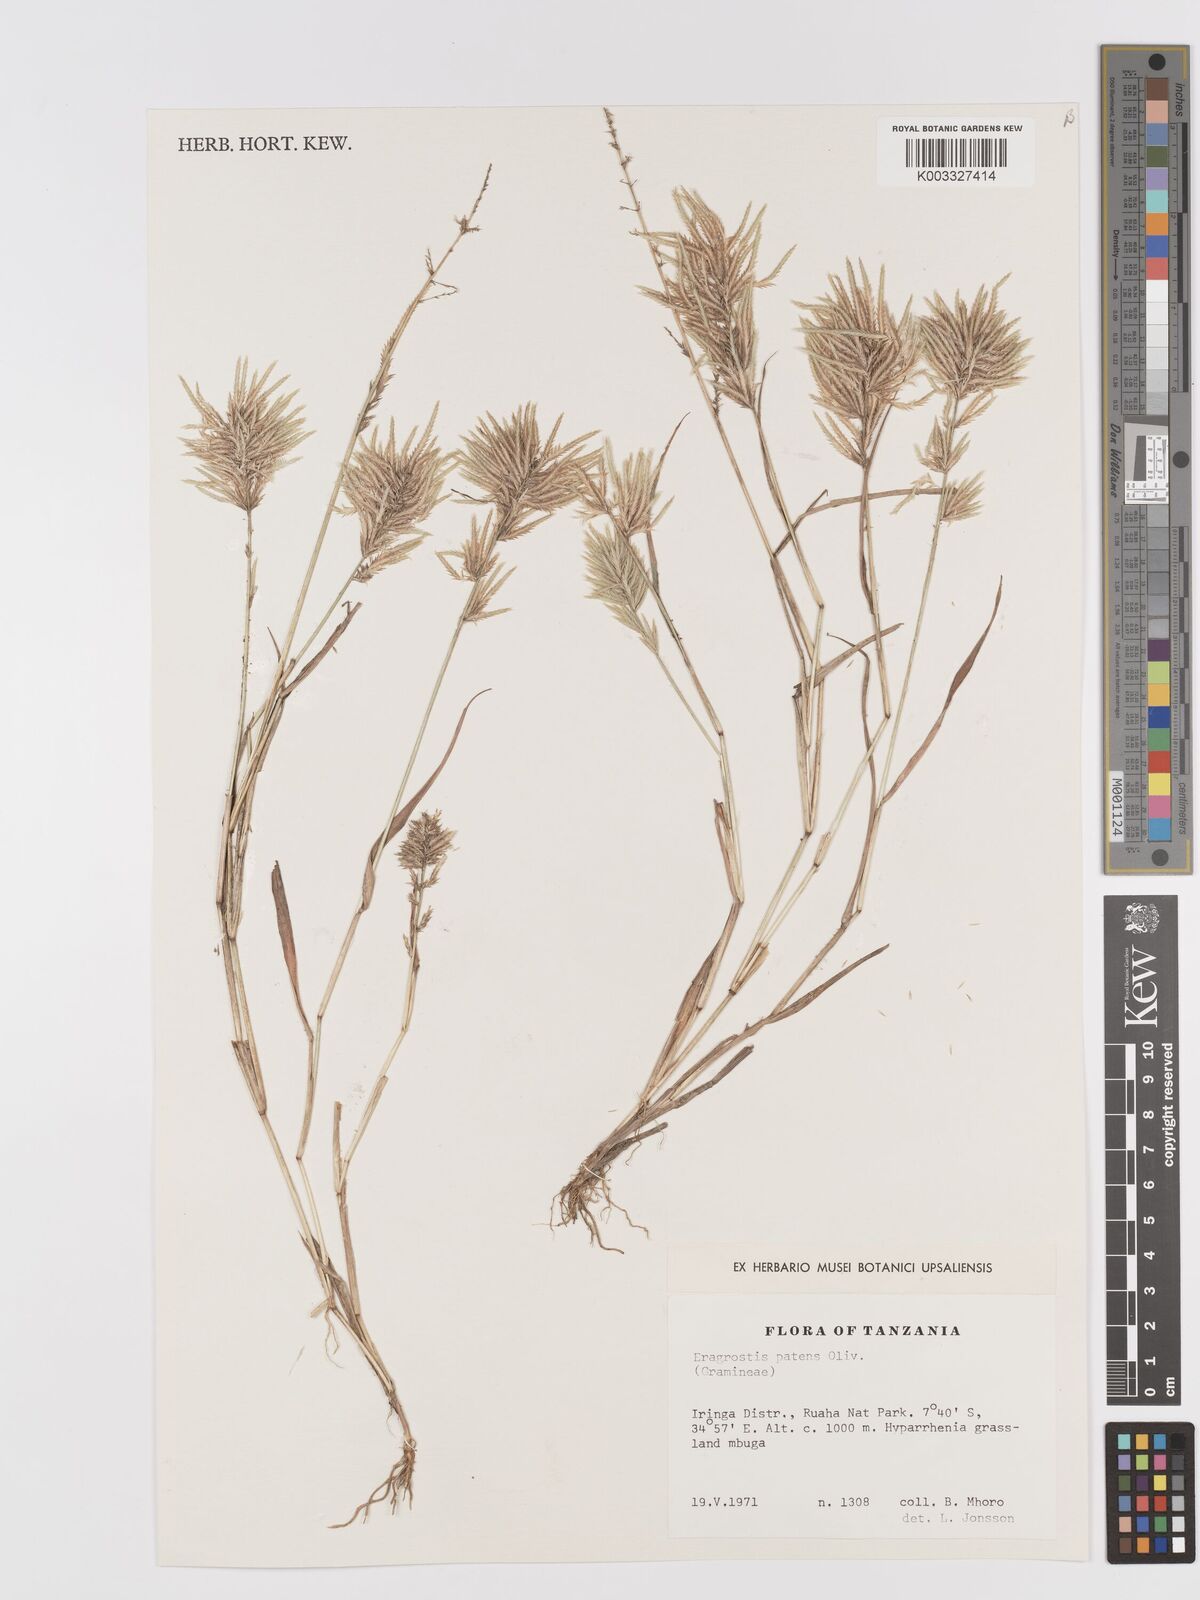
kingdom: Plantae
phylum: Tracheophyta
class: Liliopsida
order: Poales
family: Poaceae
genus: Eragrostis
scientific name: Eragrostis patens
